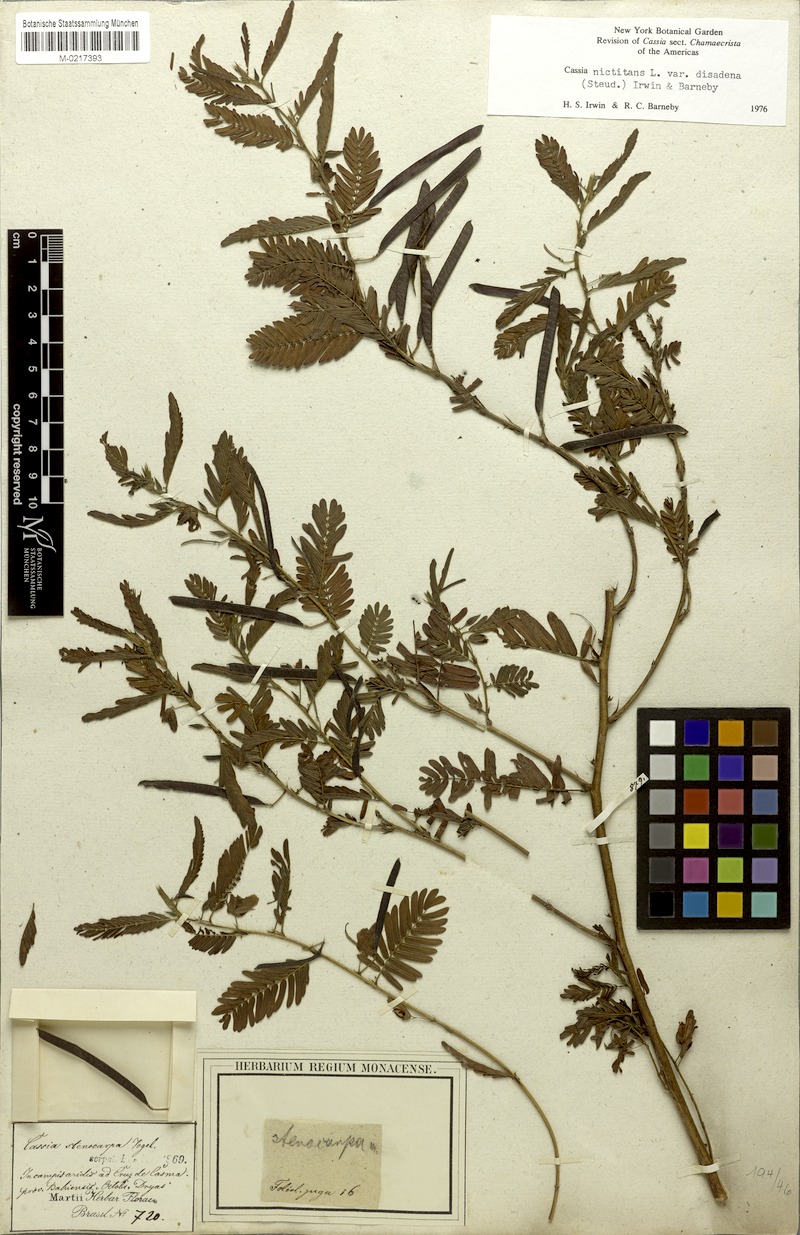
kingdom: Plantae
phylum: Tracheophyta
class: Magnoliopsida
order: Fabales
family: Fabaceae
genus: Chamaecrista
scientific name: Chamaecrista nictitans
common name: Sensitive cassia
